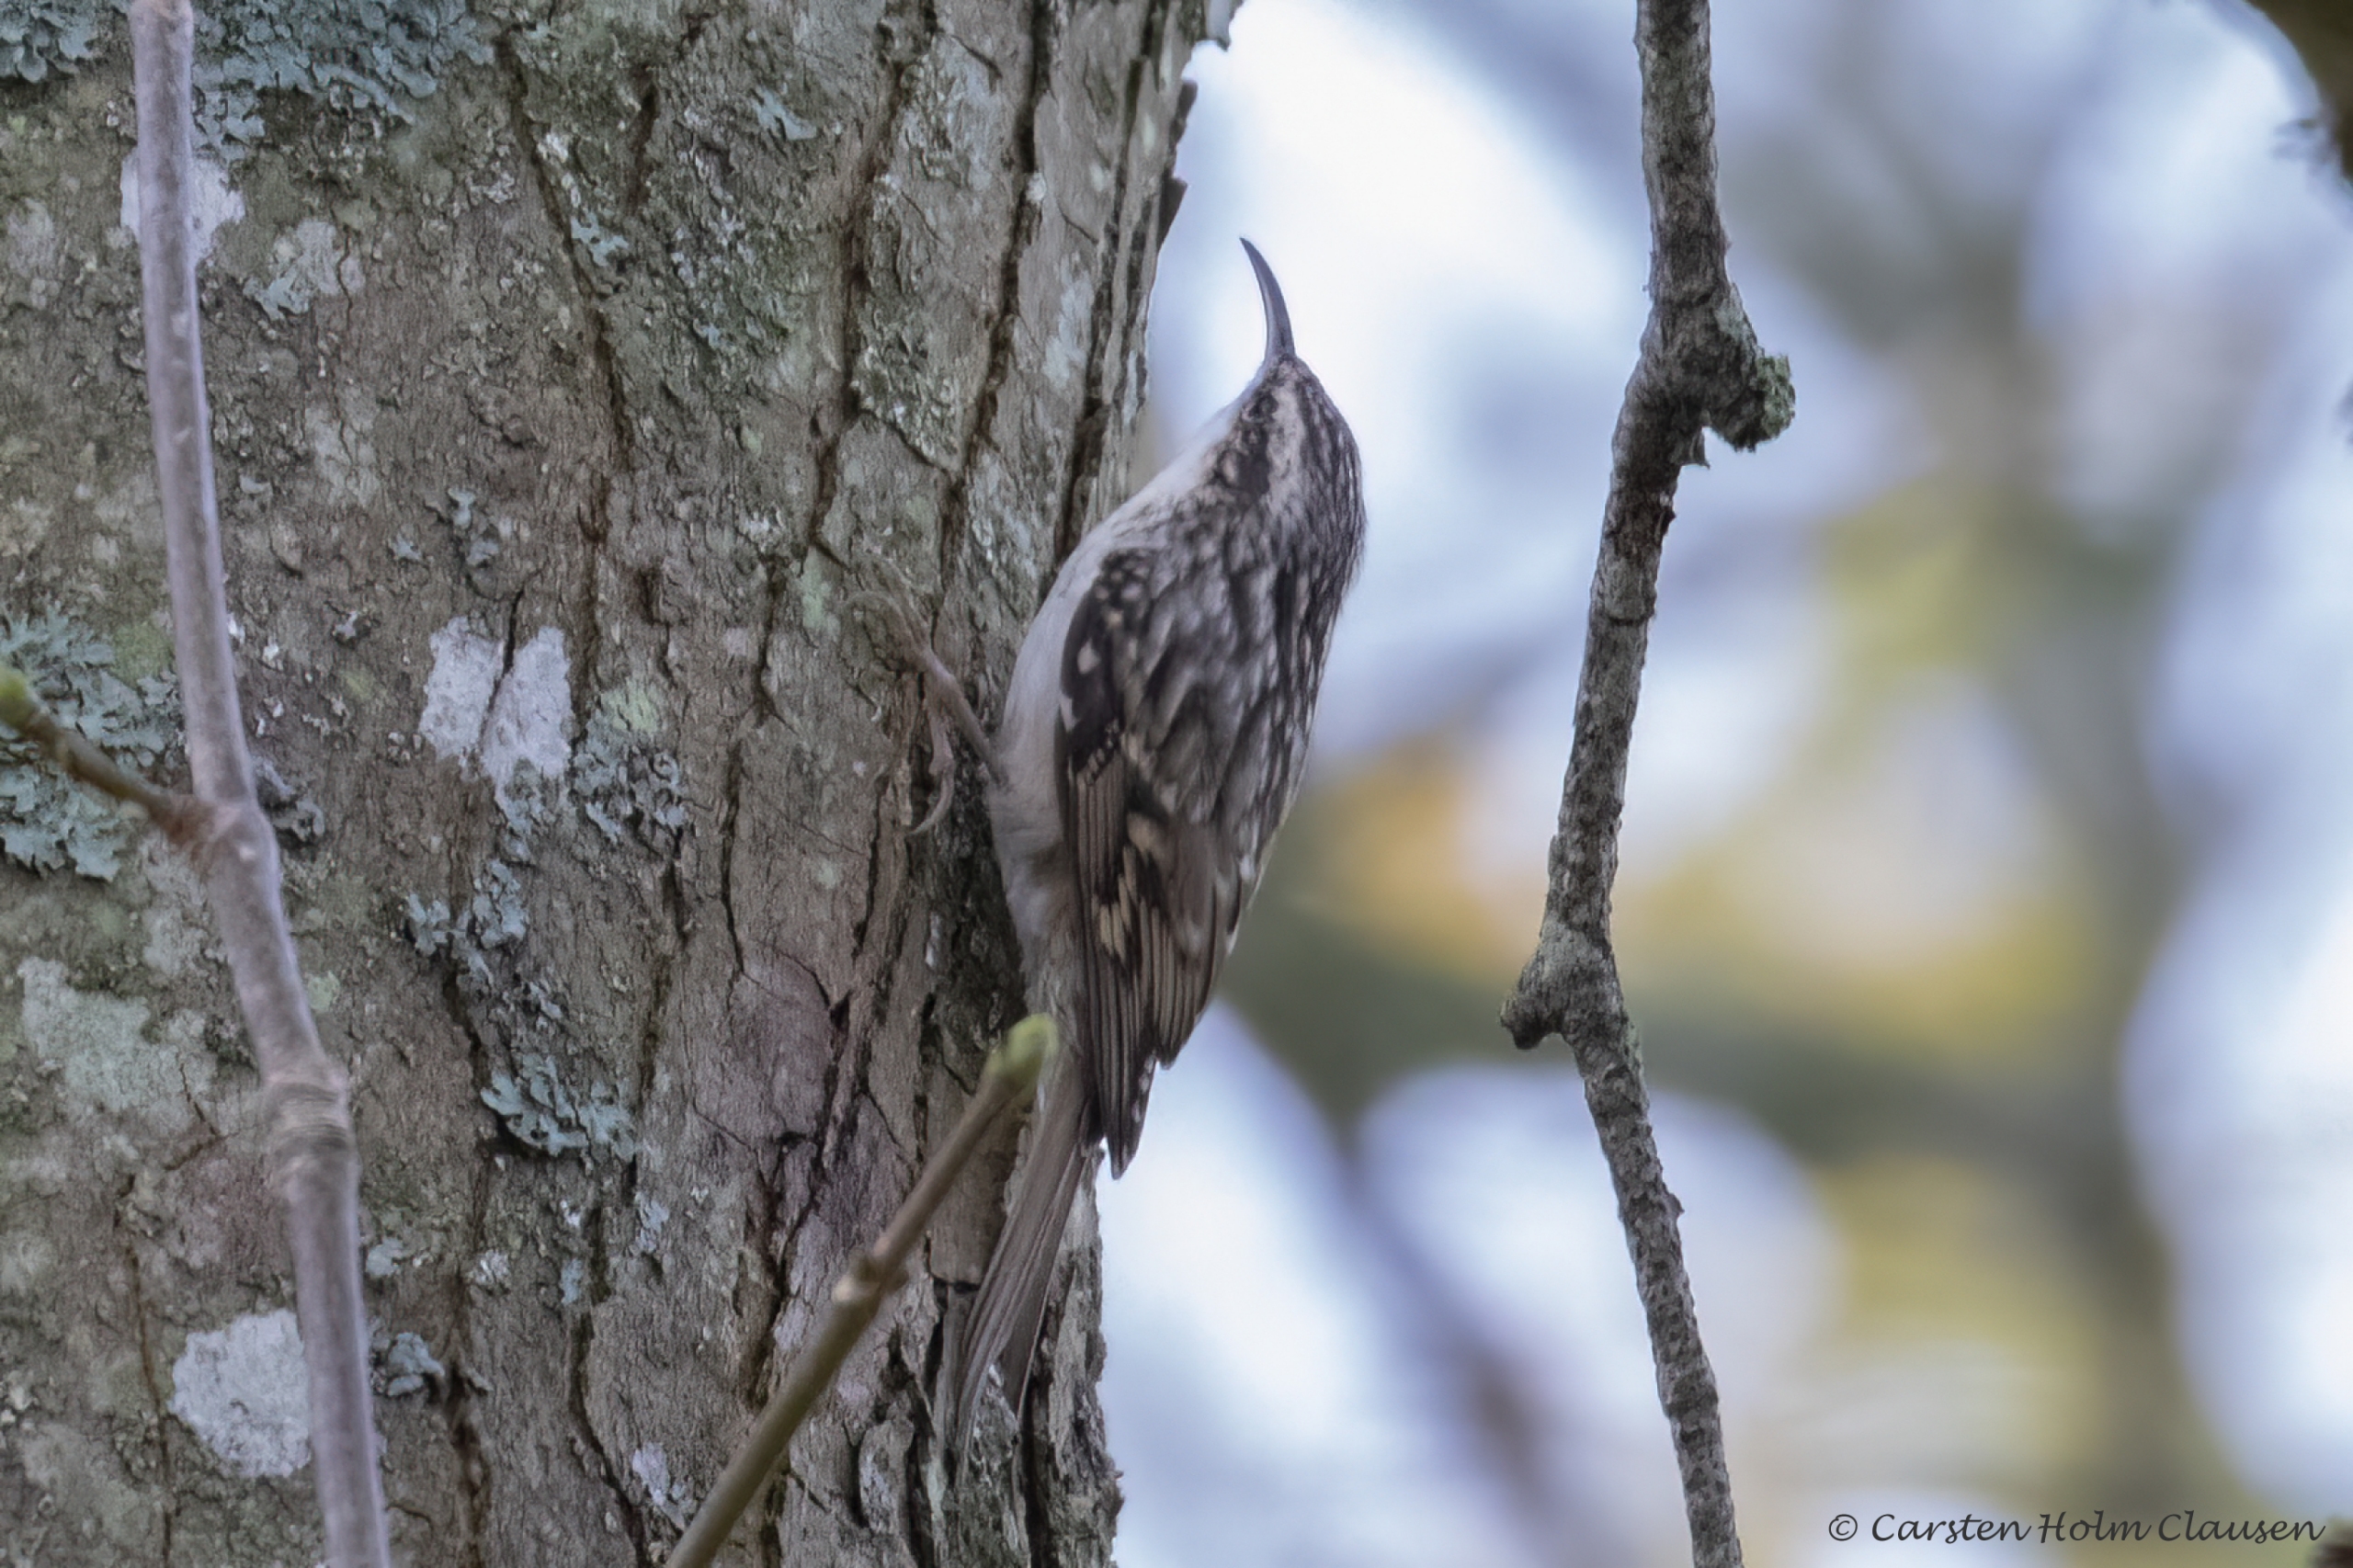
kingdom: Animalia
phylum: Chordata
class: Aves
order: Passeriformes
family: Certhiidae
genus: Certhia
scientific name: Certhia familiaris
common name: Træløber
